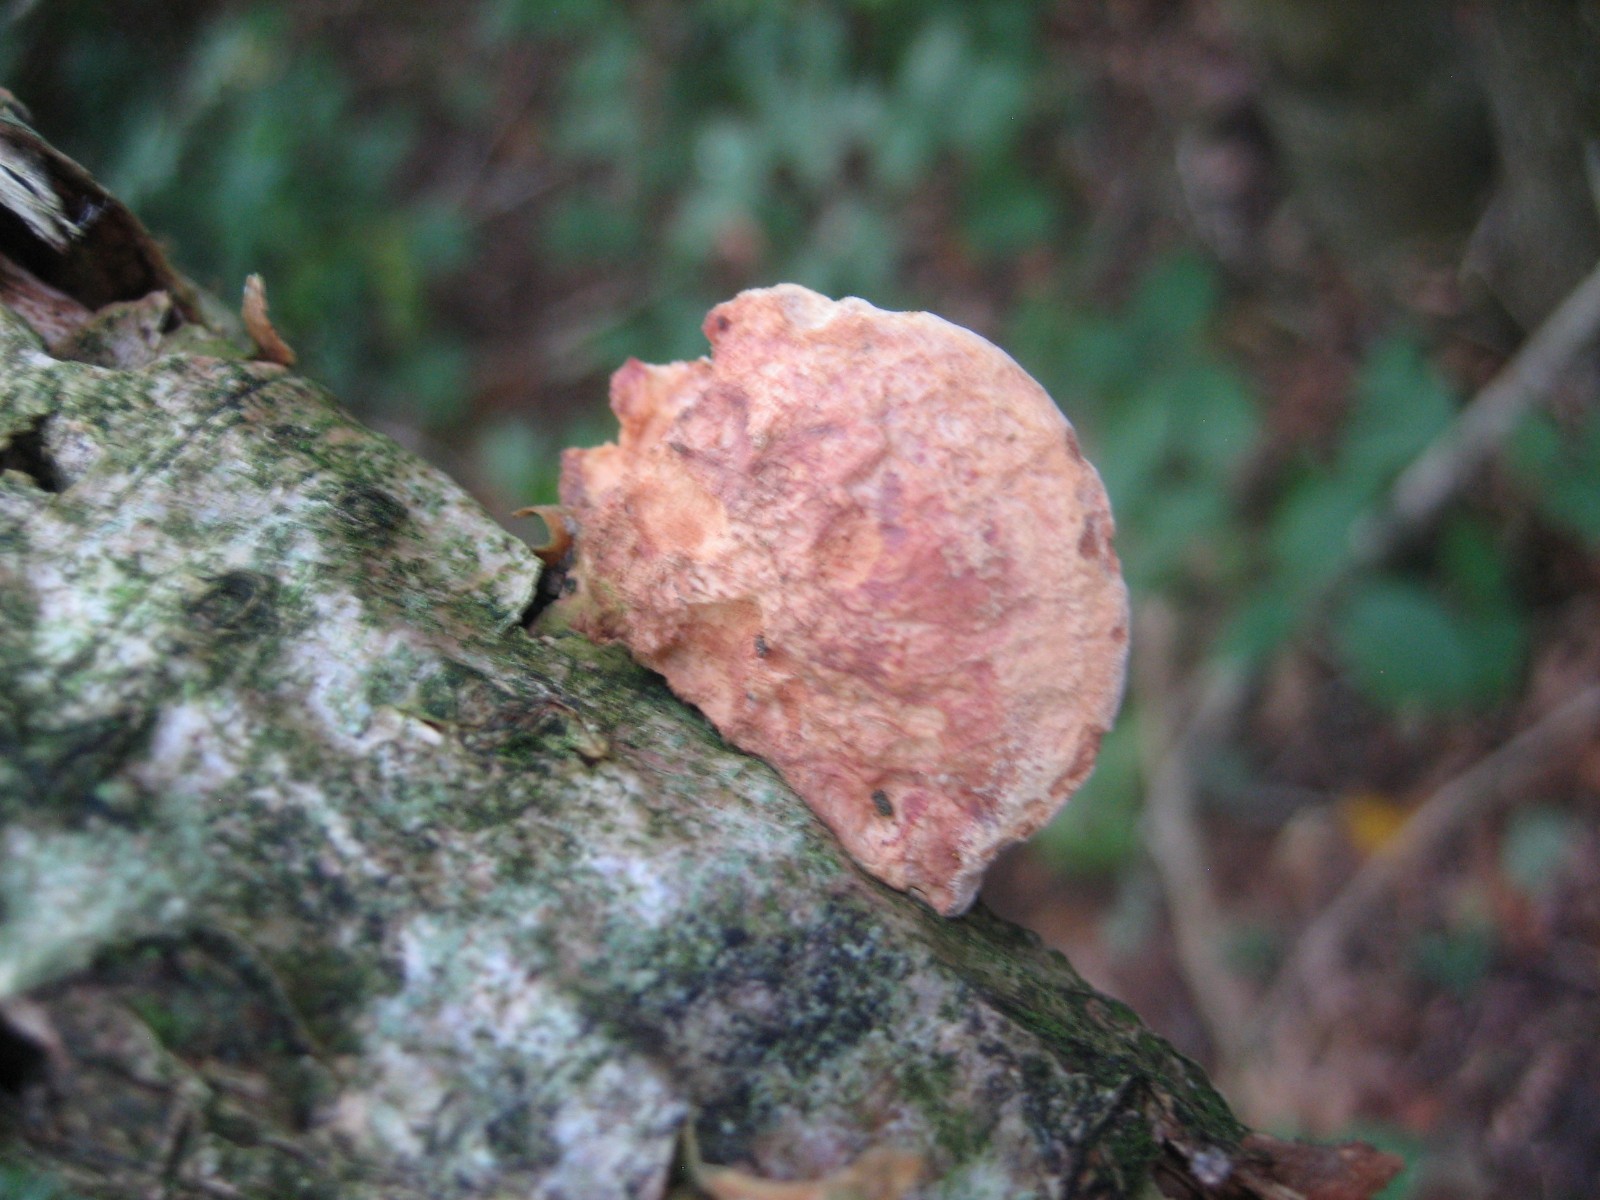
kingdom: Fungi
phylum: Basidiomycota
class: Agaricomycetes
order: Polyporales
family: Phanerochaetaceae
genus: Hapalopilus
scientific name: Hapalopilus rutilans
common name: rødlig okkerporesvamp
